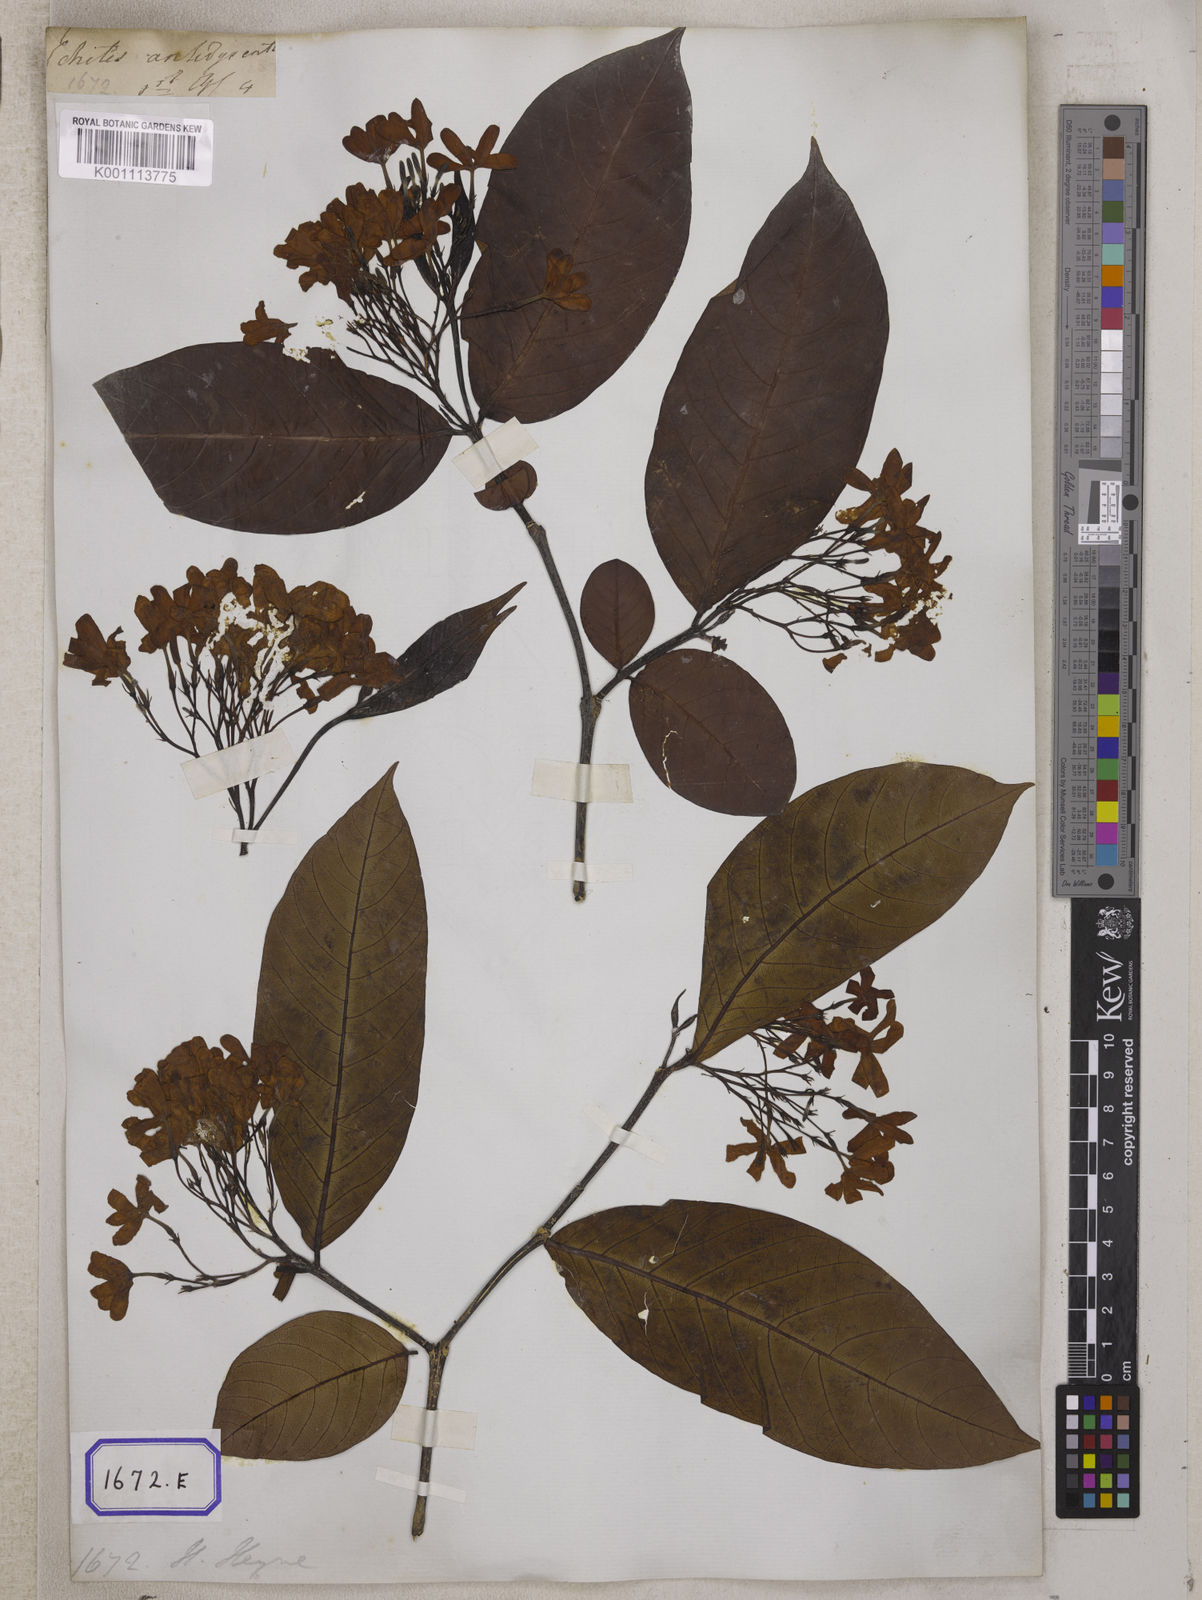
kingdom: Plantae
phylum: Tracheophyta
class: Magnoliopsida
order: Gentianales
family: Apocynaceae
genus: Holarrhena
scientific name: Holarrhena pubescens
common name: Bitter oleander
